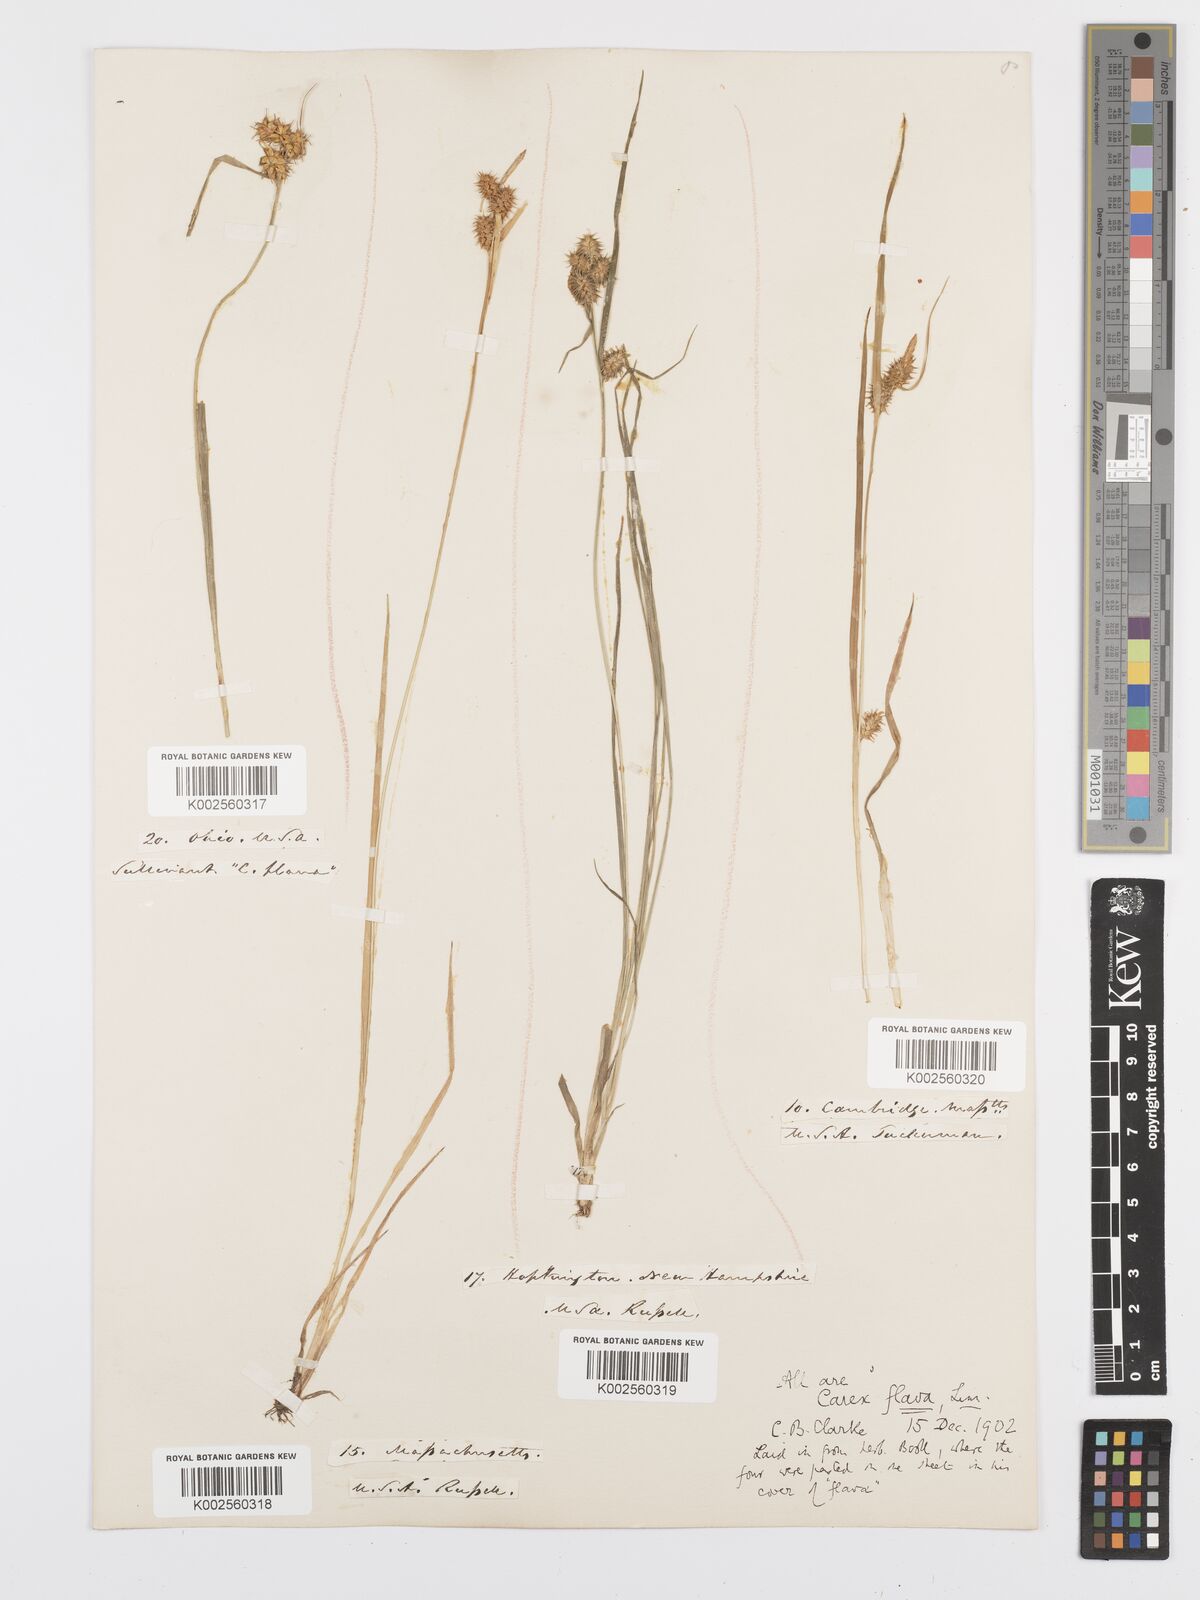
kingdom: Plantae
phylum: Tracheophyta
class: Liliopsida
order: Poales
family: Cyperaceae
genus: Carex
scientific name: Carex flava
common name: Large yellow-sedge
